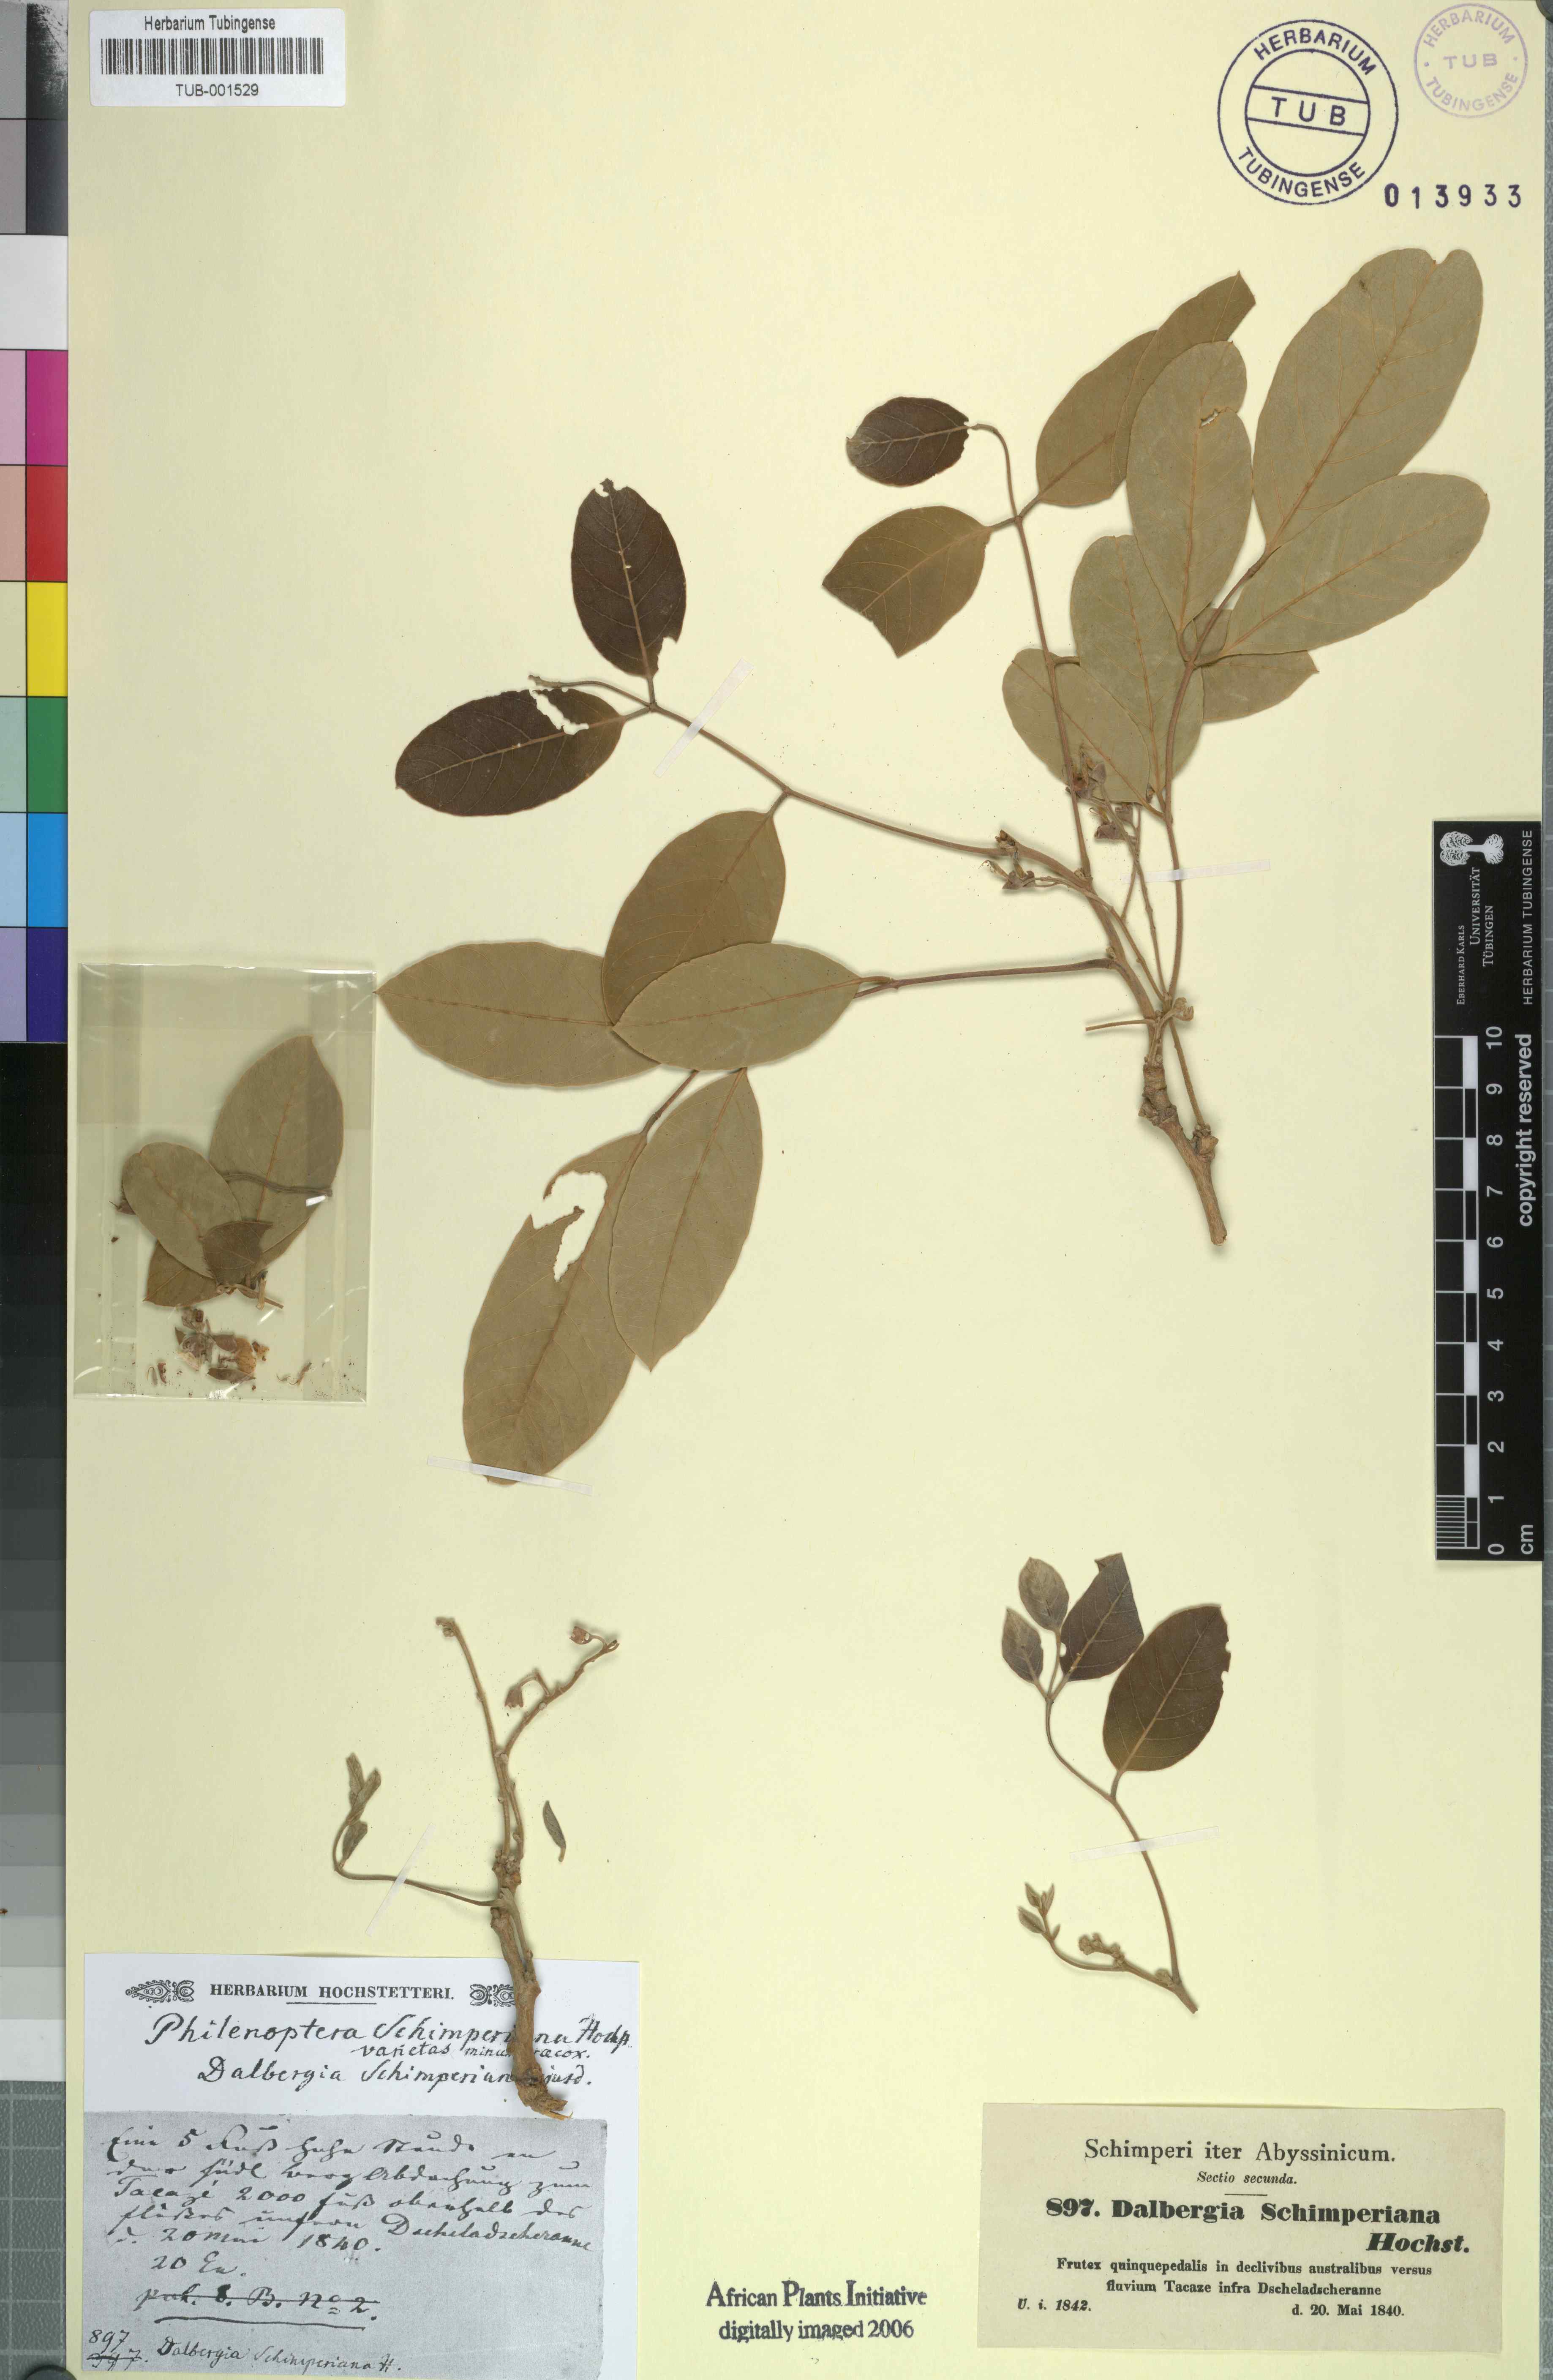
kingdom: Plantae
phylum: Tracheophyta
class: Magnoliopsida
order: Fabales
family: Fabaceae
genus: Philenoptera
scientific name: Philenoptera laxiflora
